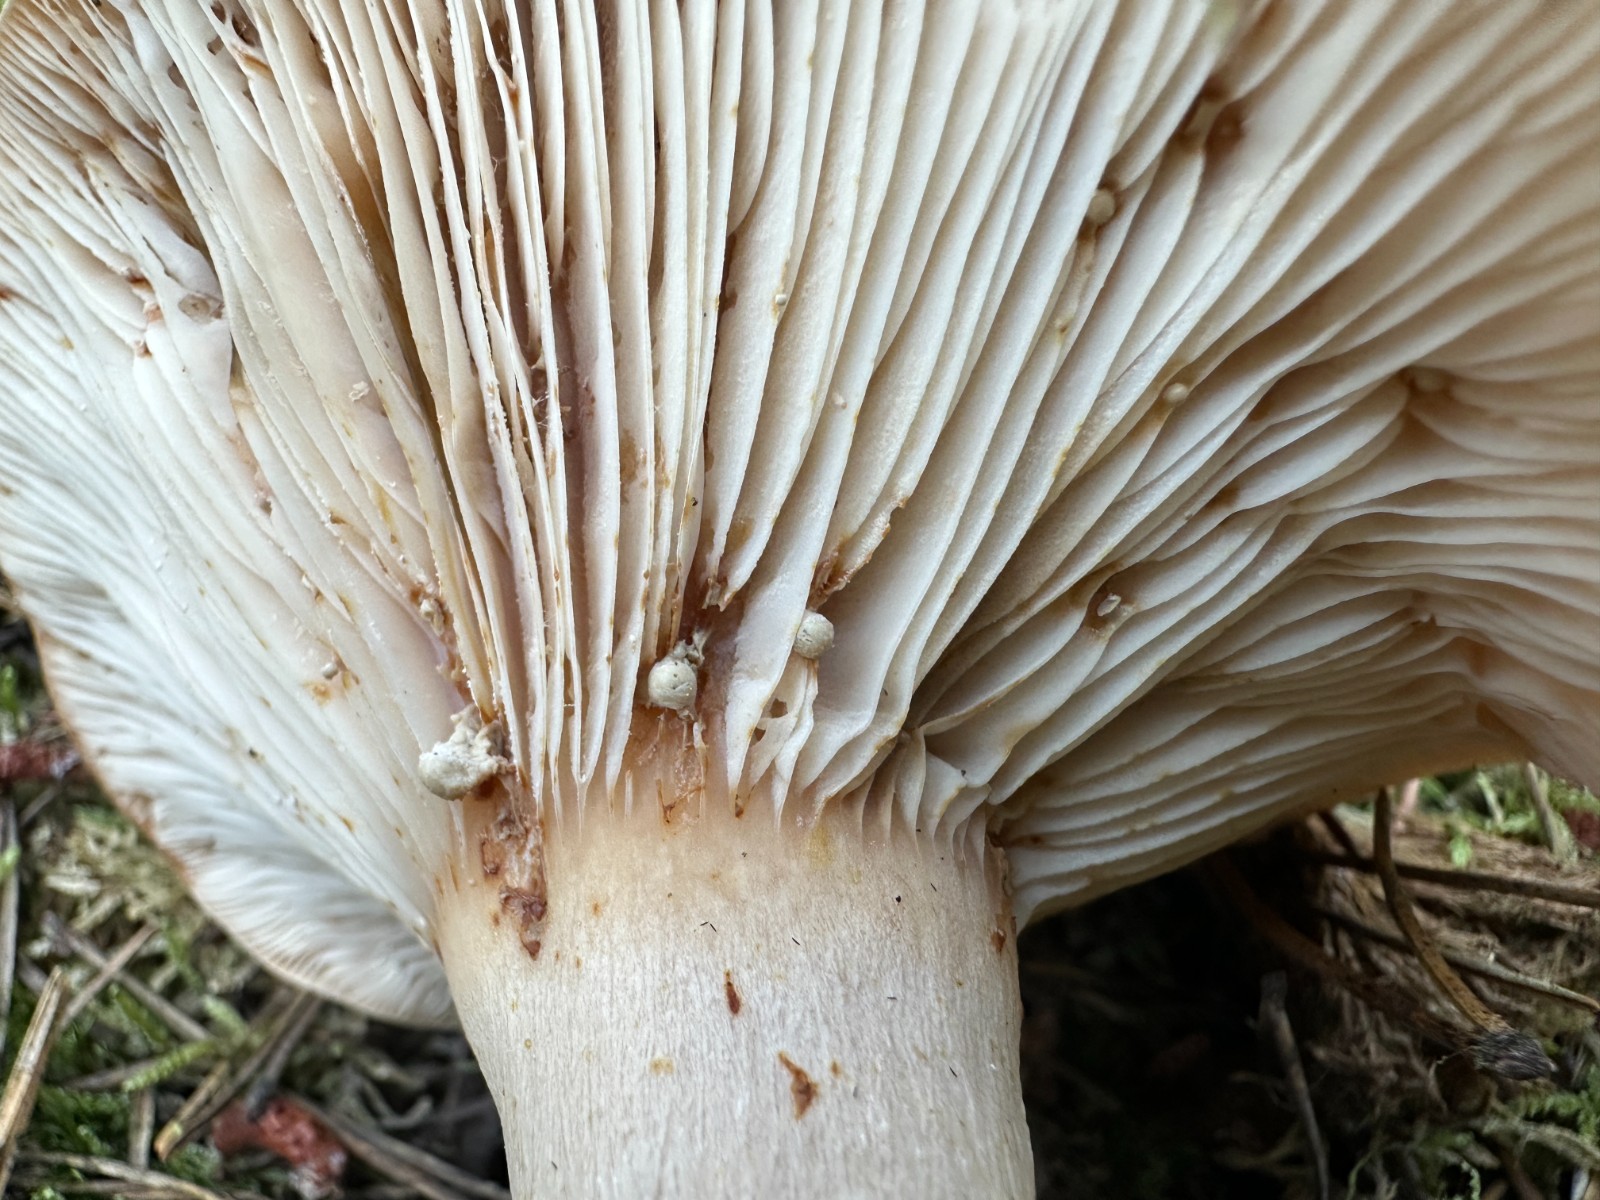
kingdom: Fungi
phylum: Basidiomycota
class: Agaricomycetes
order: Russulales
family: Russulaceae
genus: Lactarius
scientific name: Lactarius musteus
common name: elfenbens-mælkehat
